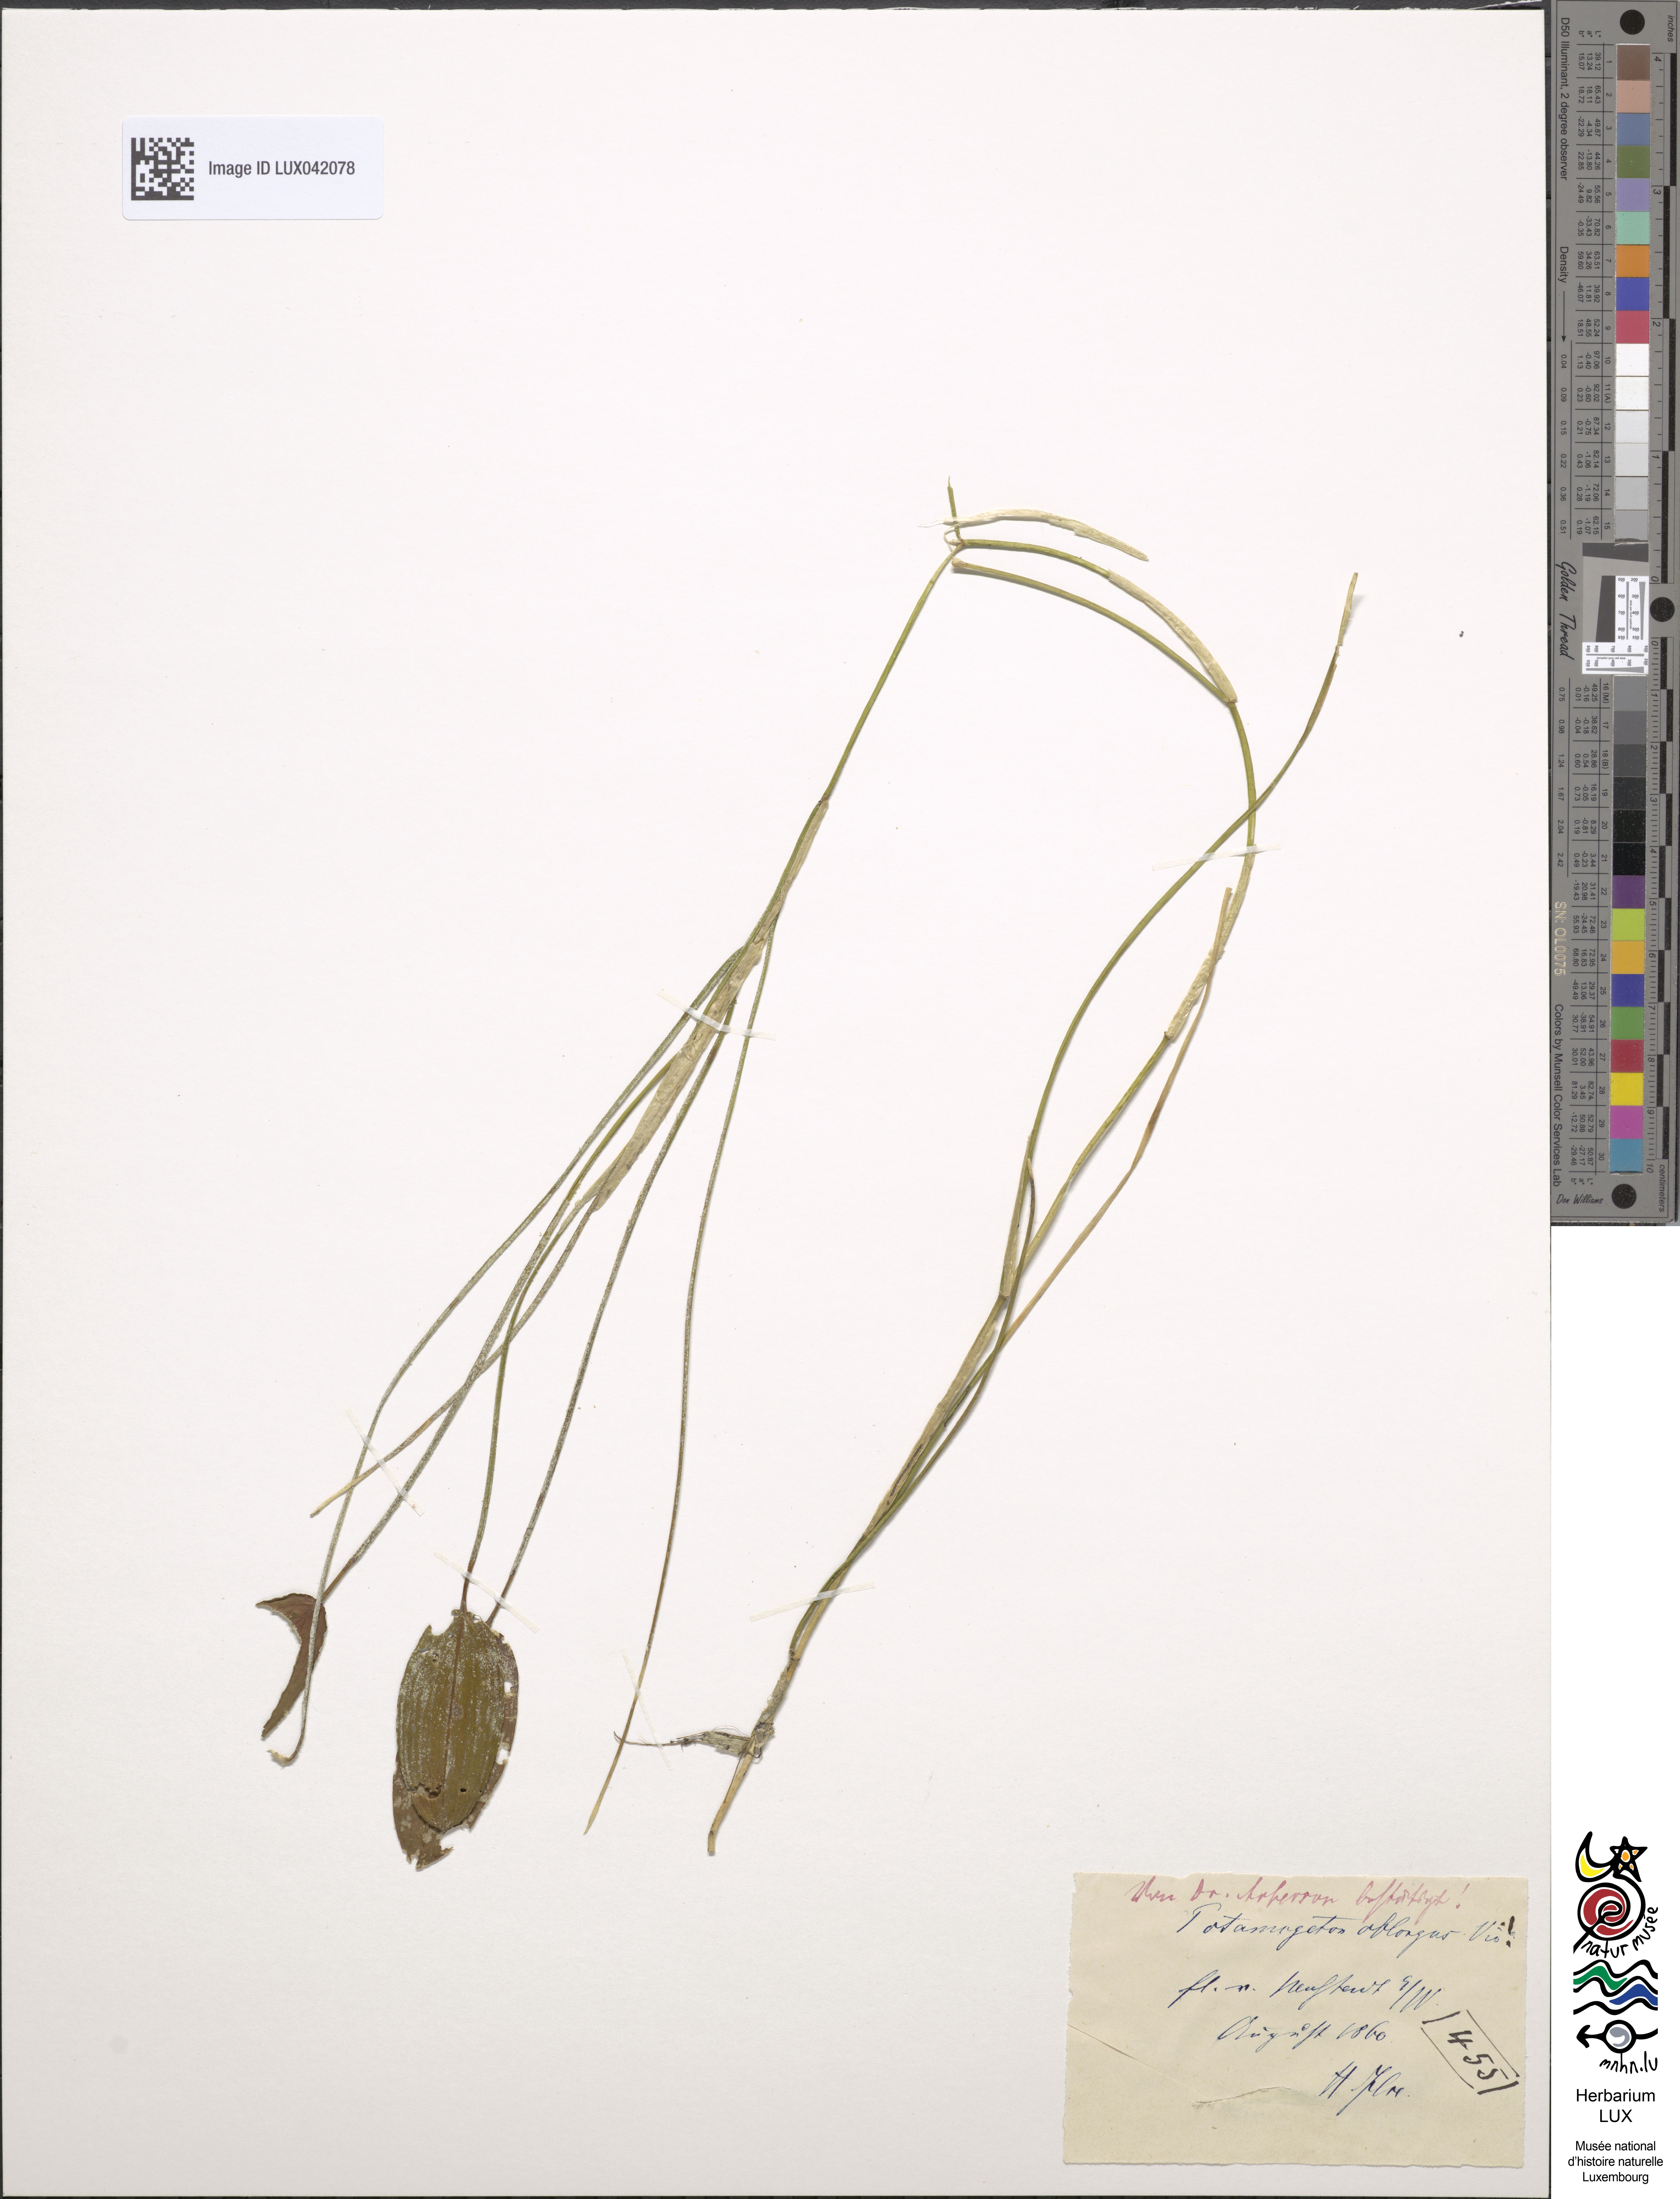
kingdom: Plantae
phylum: Tracheophyta
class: Liliopsida
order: Alismatales
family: Potamogetonaceae
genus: Potamogeton
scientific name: Potamogeton polygonifolius
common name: Bog pondweed
